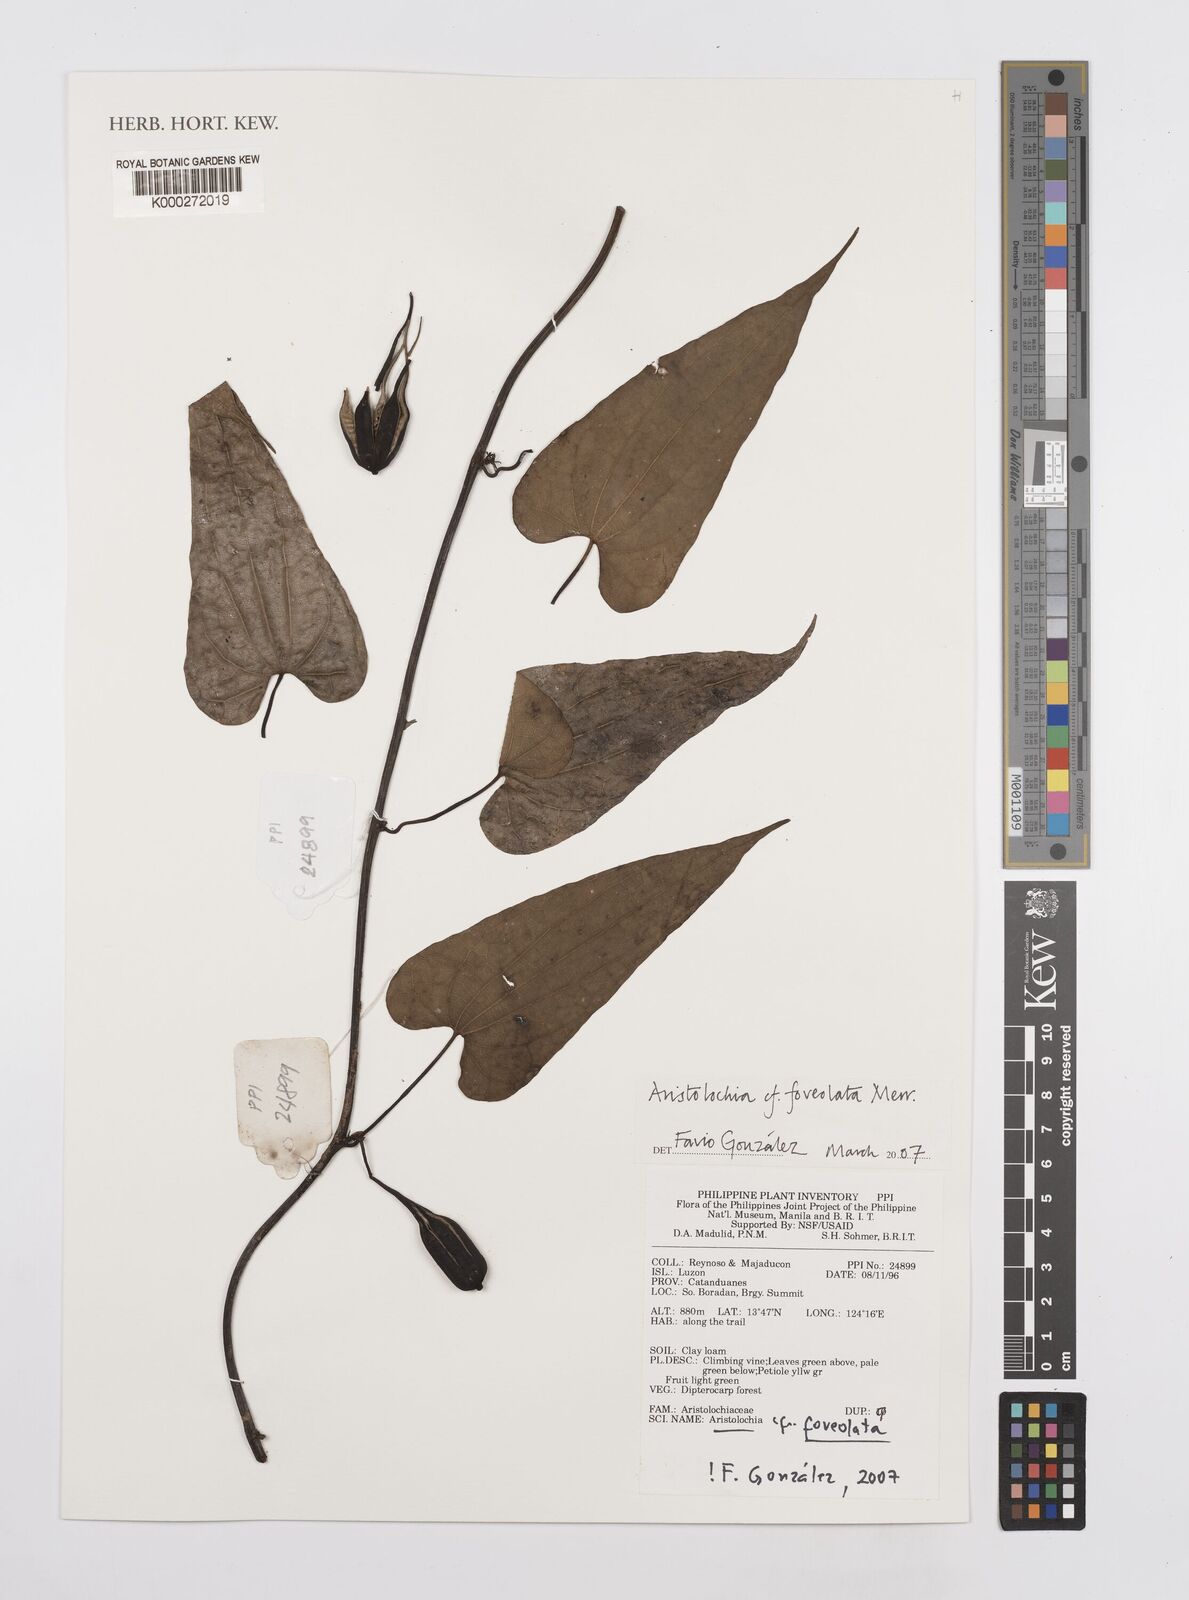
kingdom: Plantae
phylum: Tracheophyta
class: Magnoliopsida
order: Piperales
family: Aristolochiaceae
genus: Aristolochia
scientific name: Aristolochia foveolata
